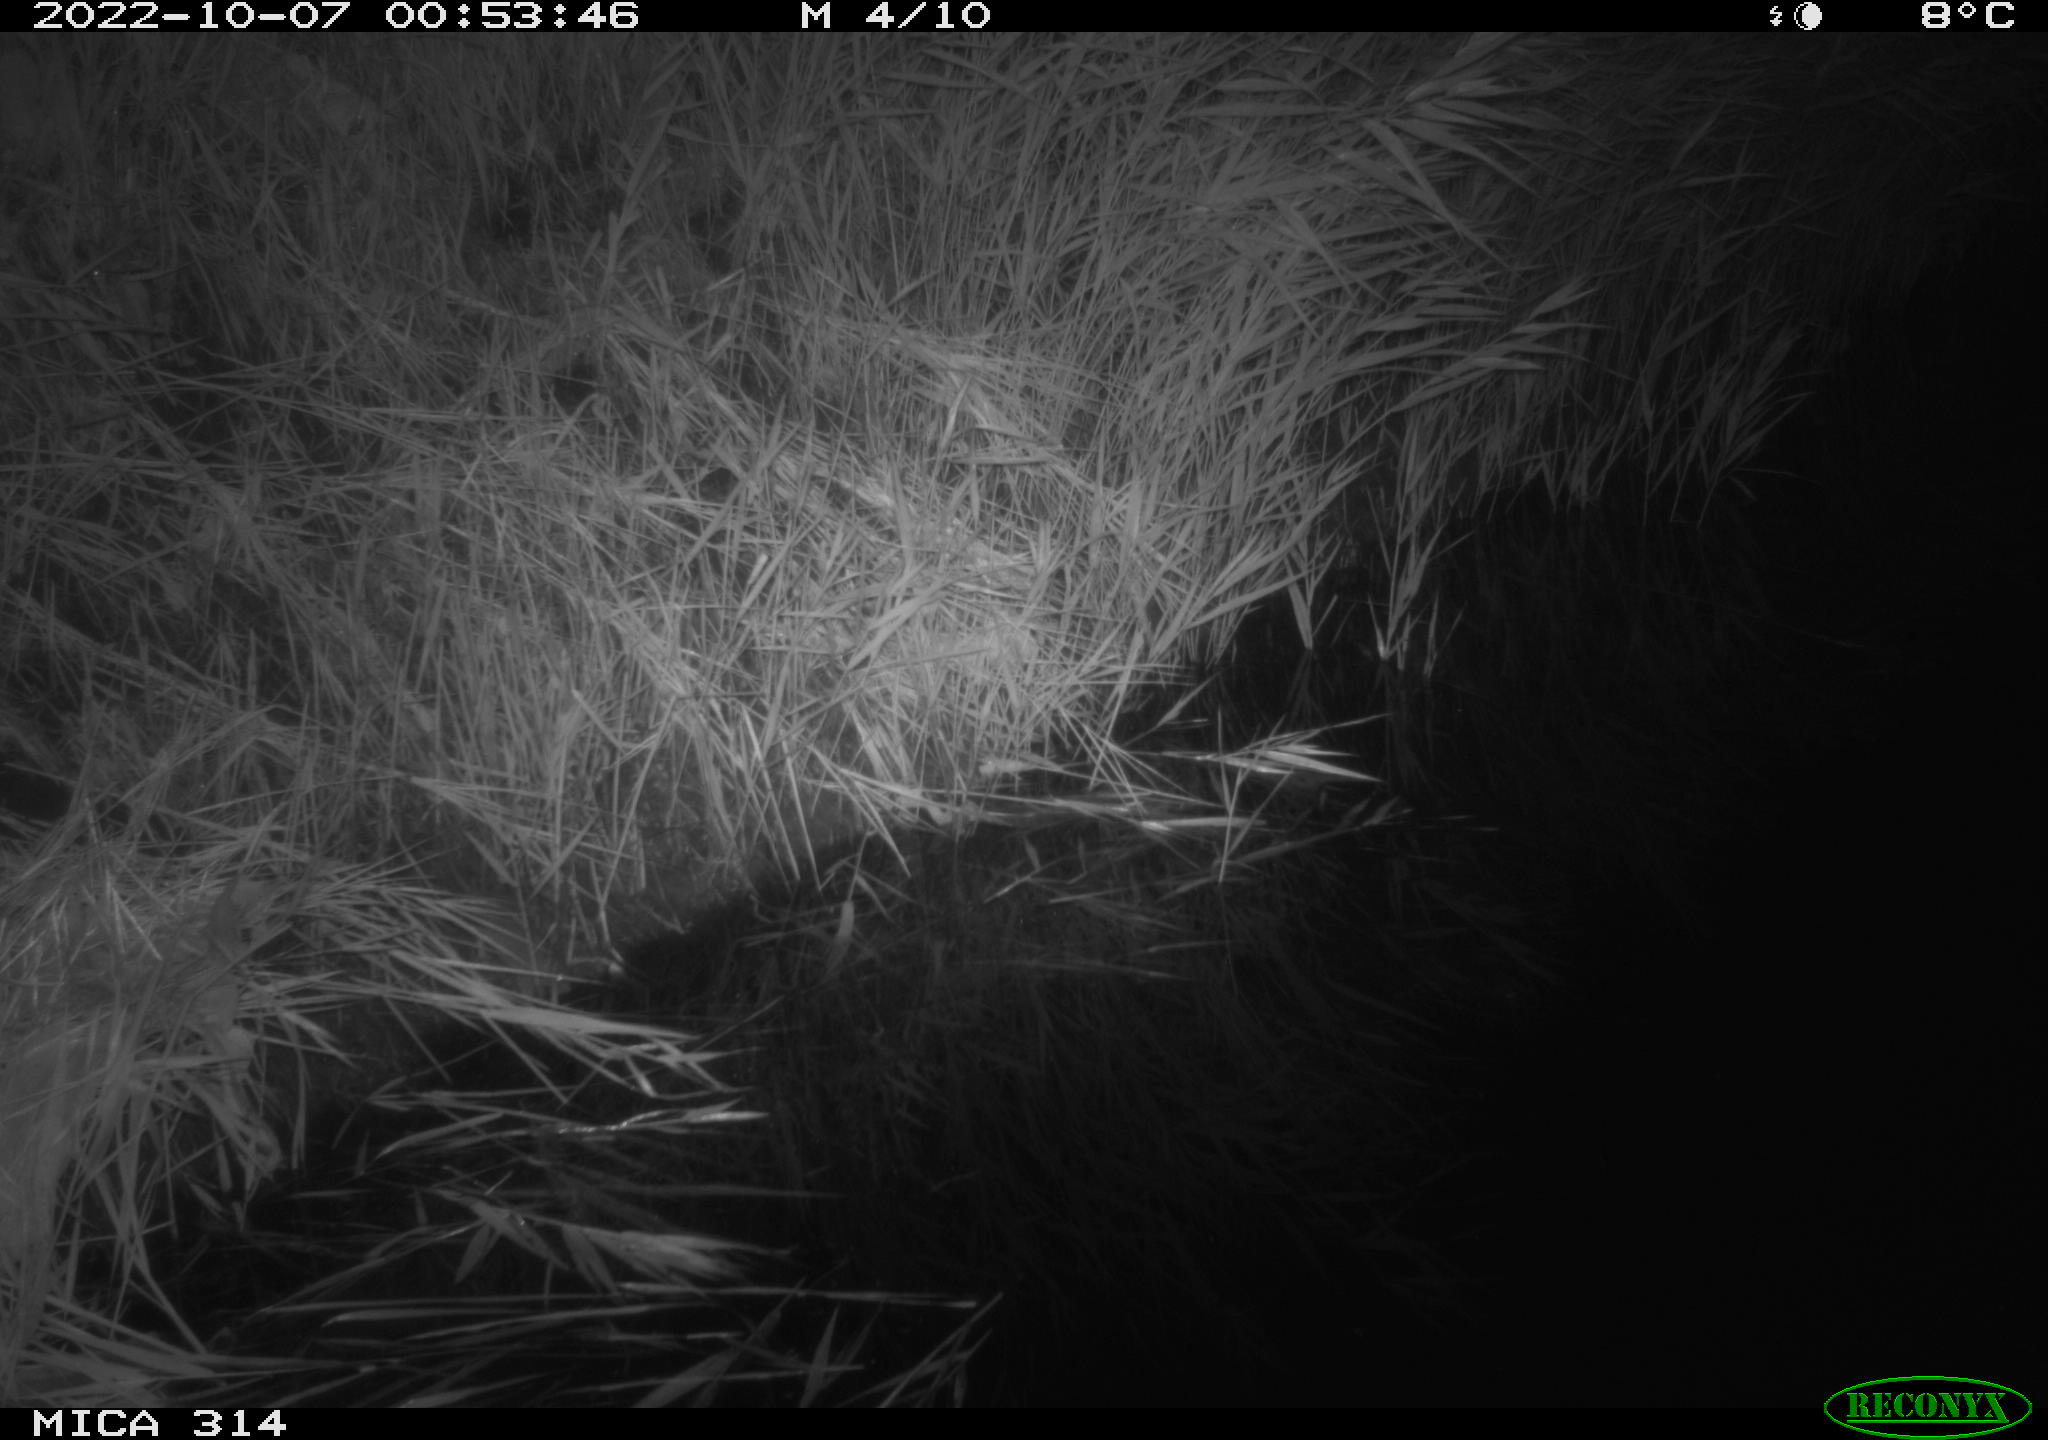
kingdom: Animalia
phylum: Chordata
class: Mammalia
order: Rodentia
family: Muridae
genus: Rattus
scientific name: Rattus norvegicus
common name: Brown rat
